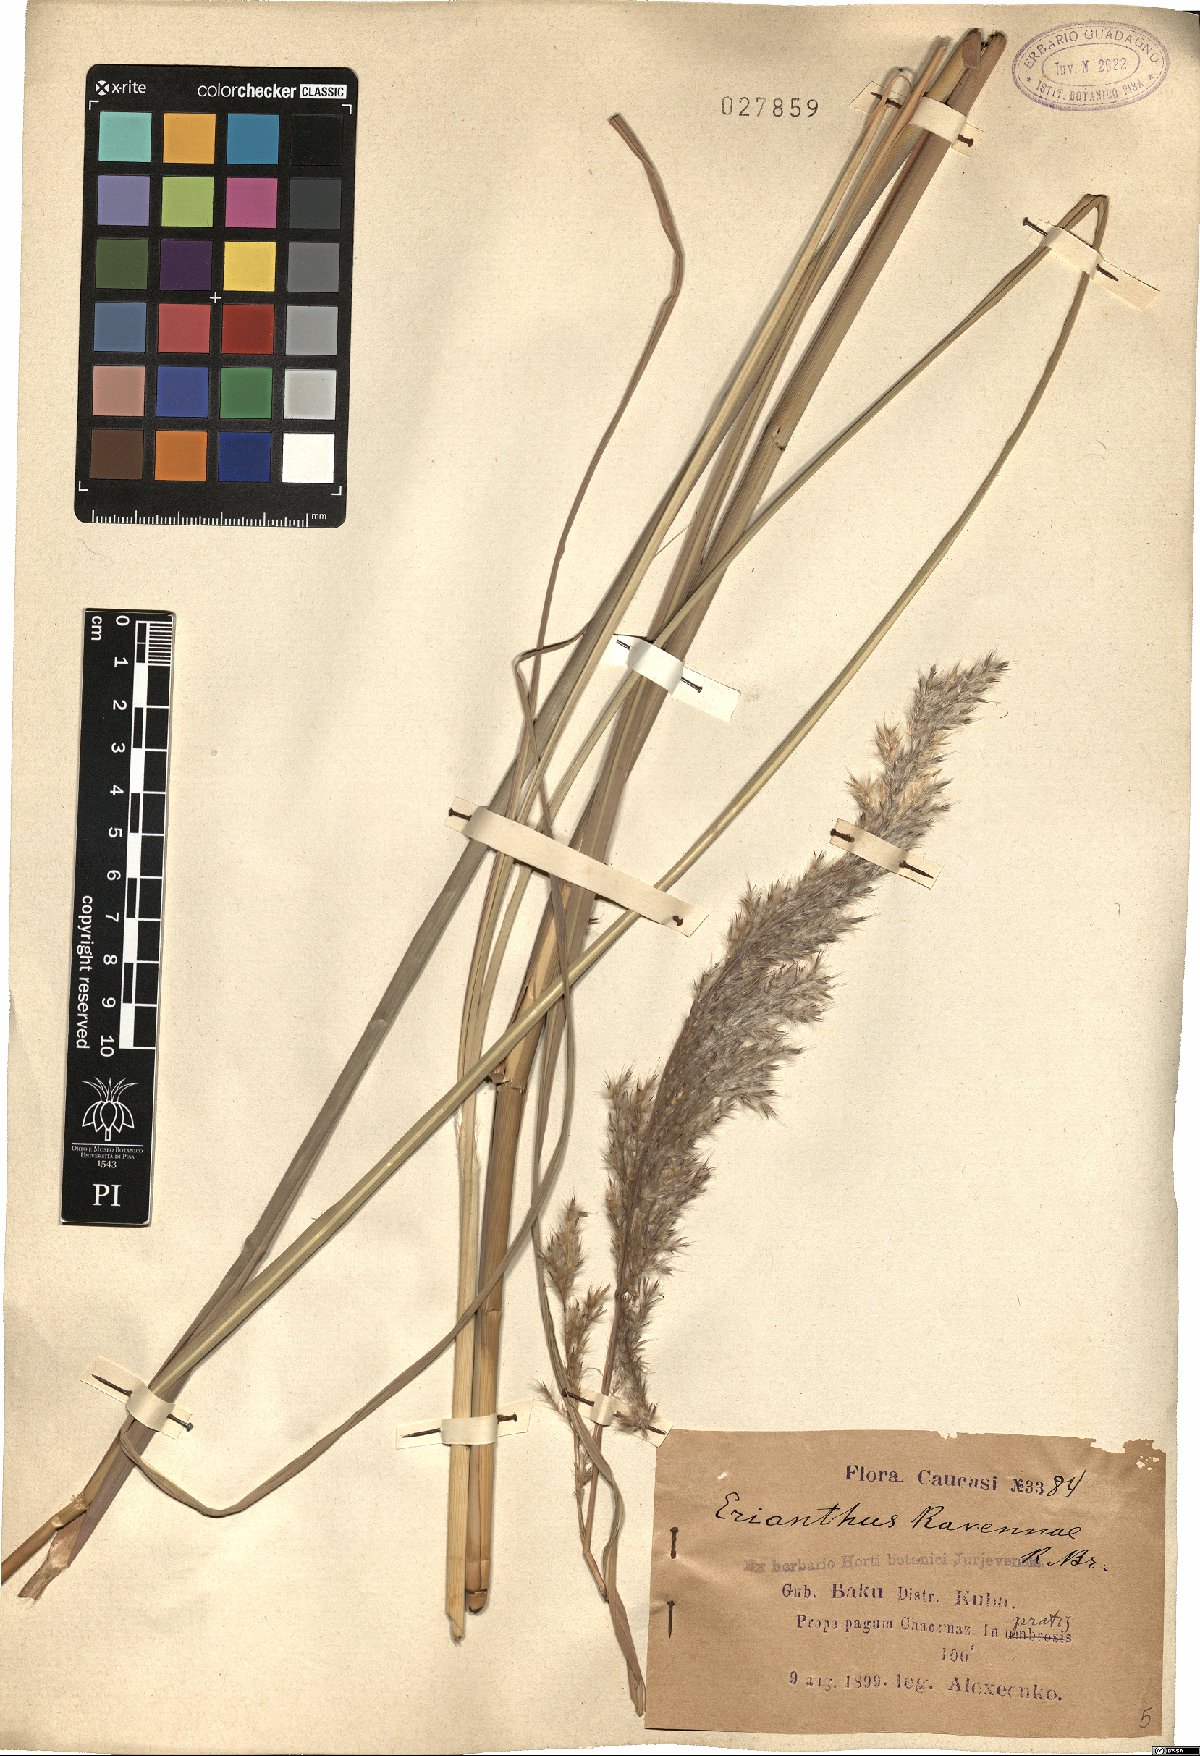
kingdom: Plantae
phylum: Tracheophyta
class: Liliopsida
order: Poales
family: Poaceae
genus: Tripidium
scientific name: Tripidium ravennae
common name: Ravenna grass
